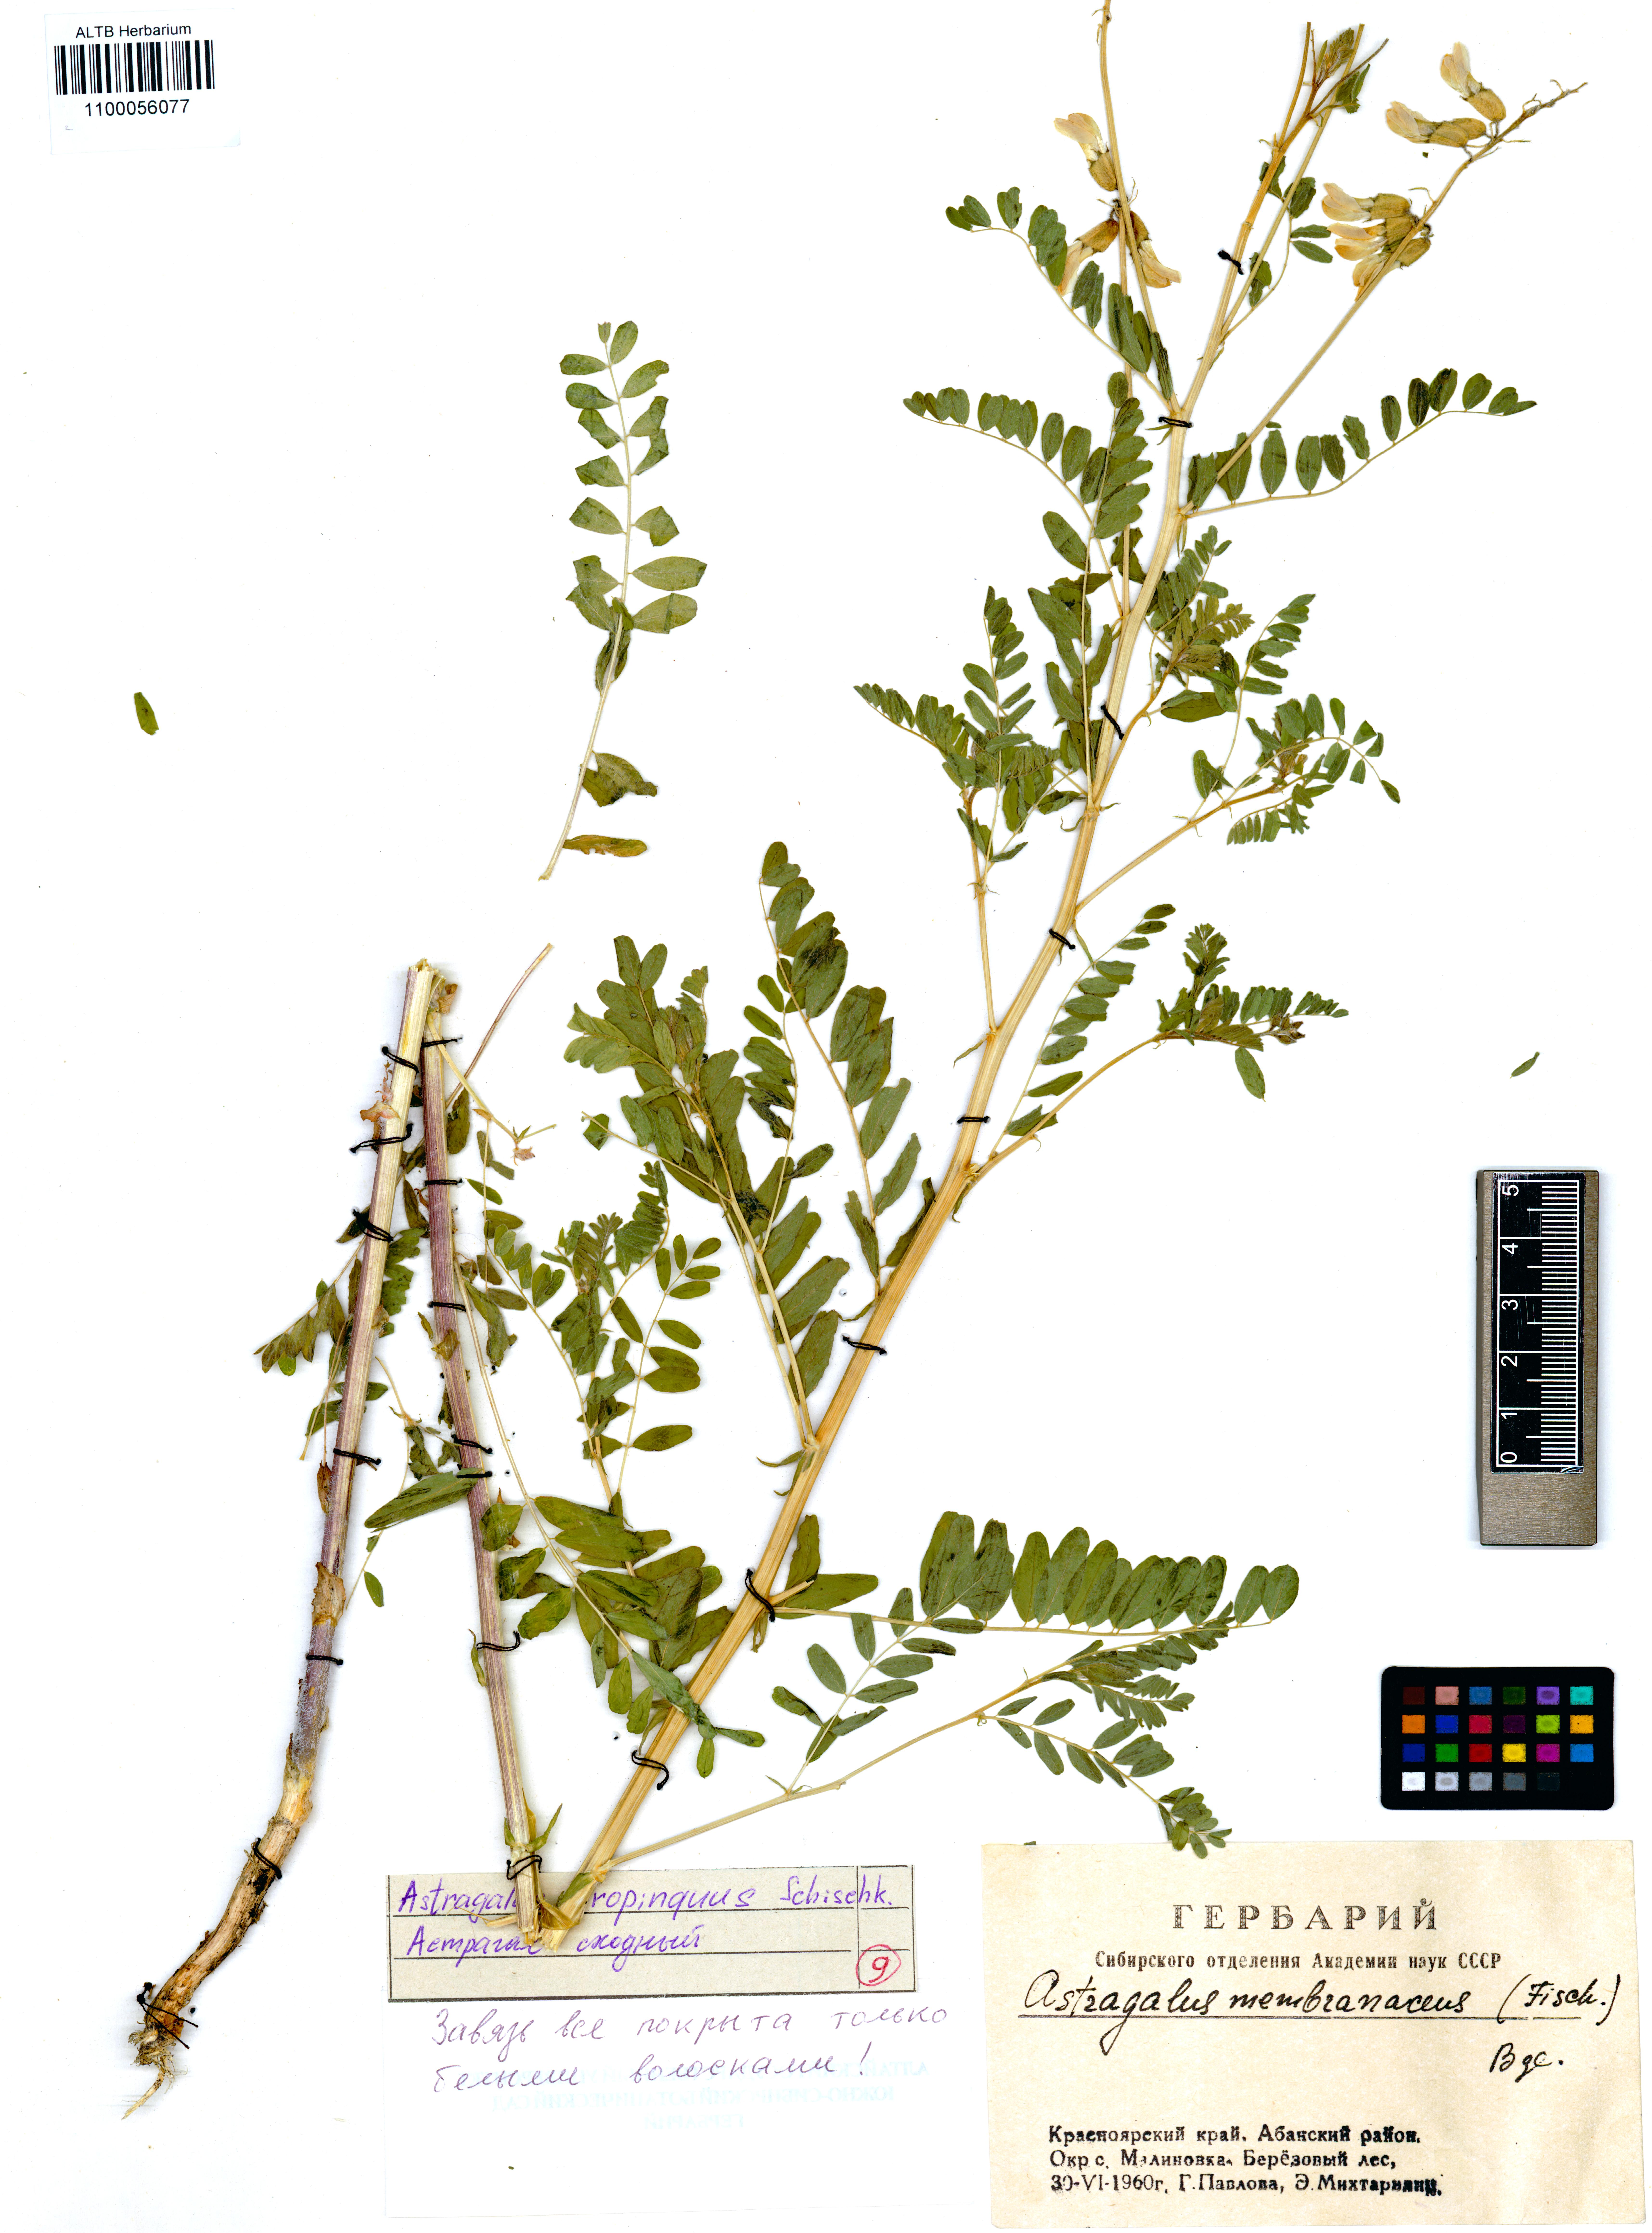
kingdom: Plantae
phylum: Tracheophyta
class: Magnoliopsida
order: Fabales
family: Fabaceae
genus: Astragalus
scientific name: Astragalus mongholicus
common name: Membranous milk-vetch
